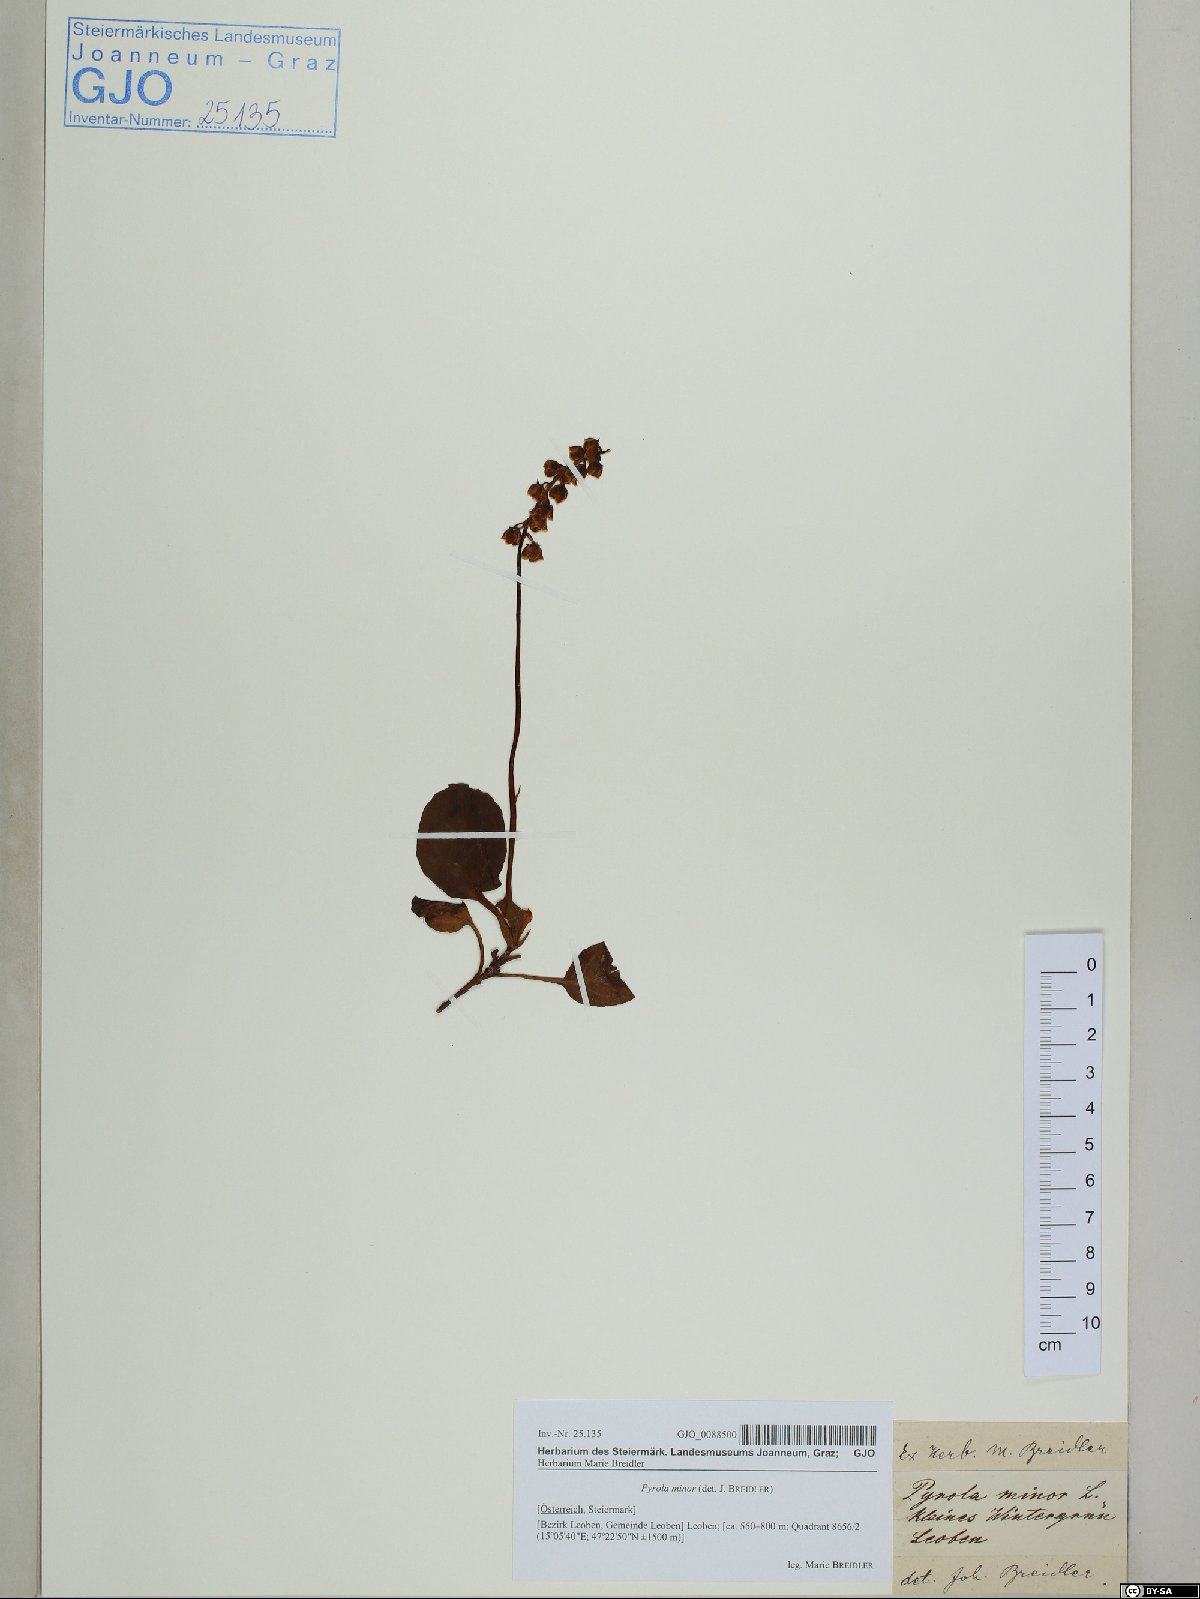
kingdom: Plantae
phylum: Tracheophyta
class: Magnoliopsida
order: Ericales
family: Ericaceae
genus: Pyrola
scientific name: Pyrola minor
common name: Common wintergreen
